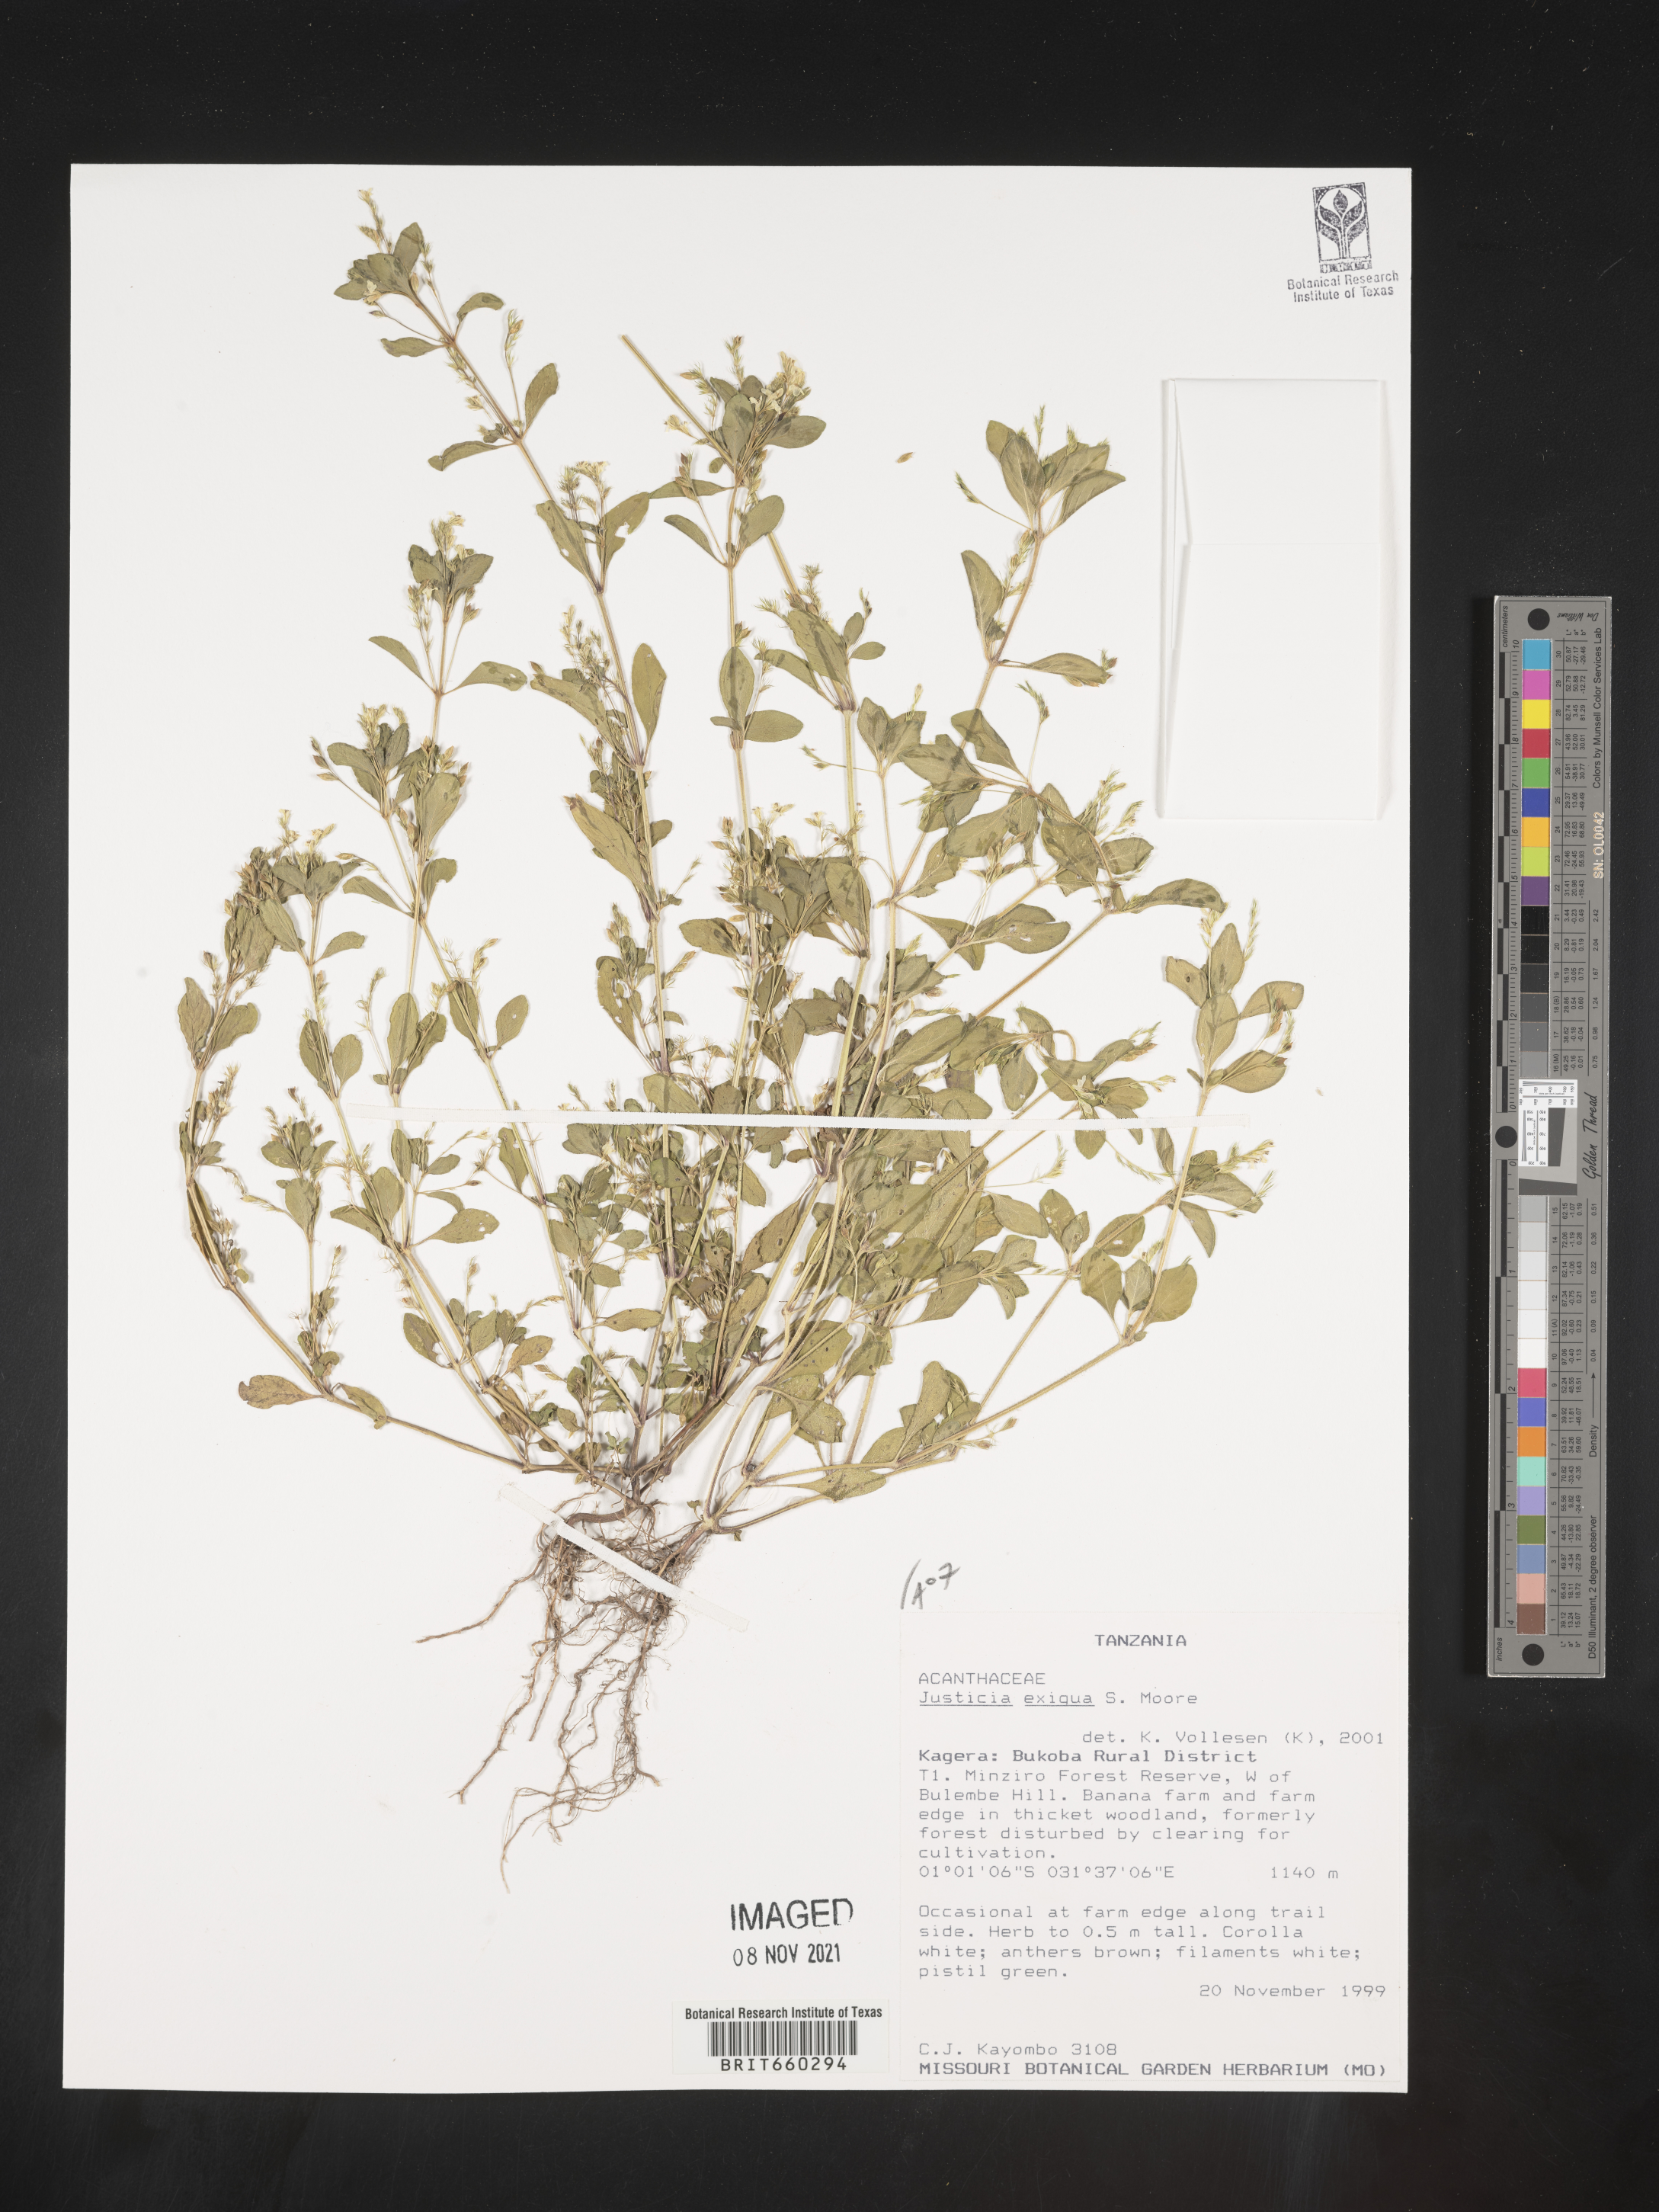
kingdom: Plantae
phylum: Tracheophyta
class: Magnoliopsida
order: Lamiales
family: Acanthaceae
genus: Justicia
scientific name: Justicia
